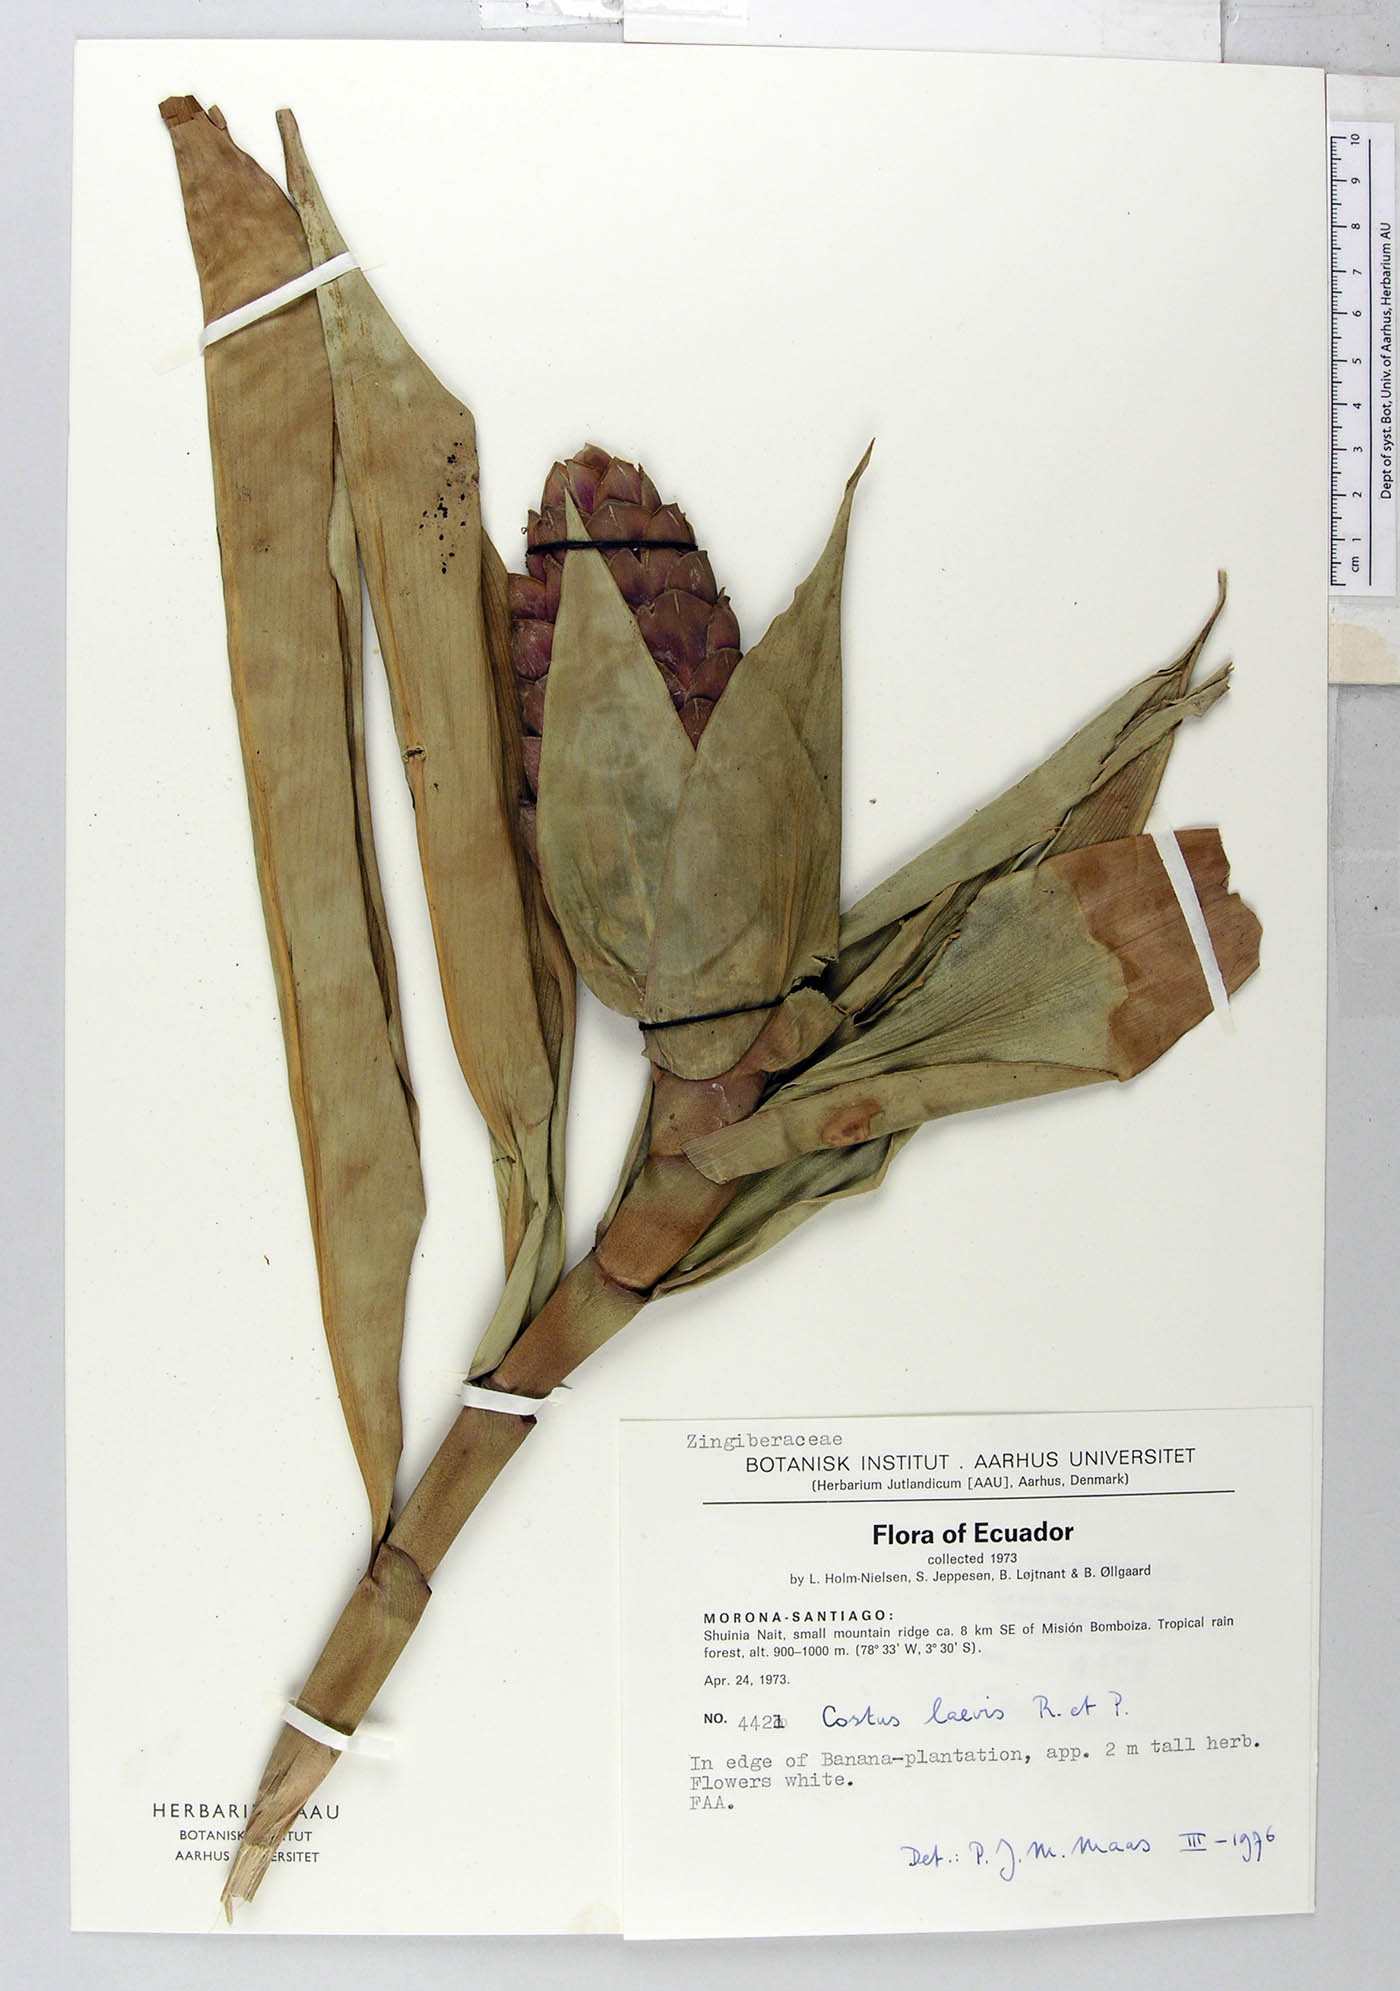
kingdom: Plantae
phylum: Tracheophyta
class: Liliopsida
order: Zingiberales
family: Costaceae
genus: Costus
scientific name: Costus laevis
